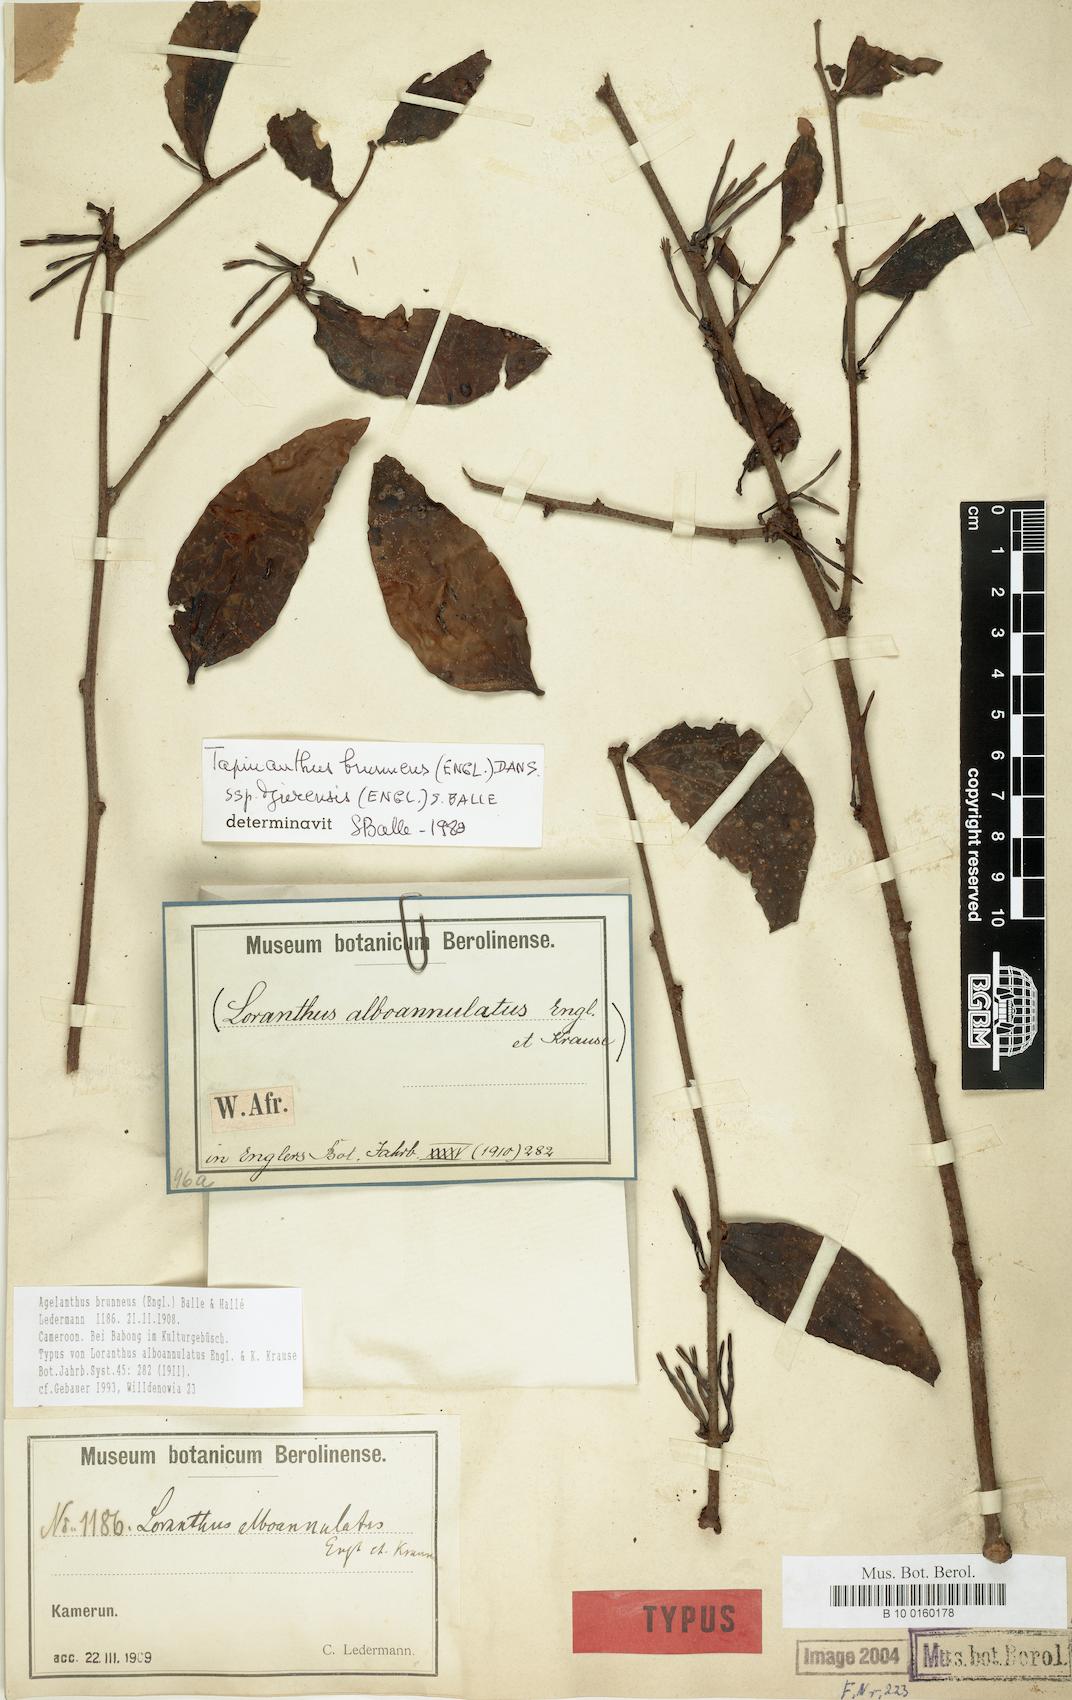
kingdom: Plantae
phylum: Tracheophyta
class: Magnoliopsida
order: Santalales
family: Loranthaceae
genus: Agelanthus
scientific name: Agelanthus brunneus
